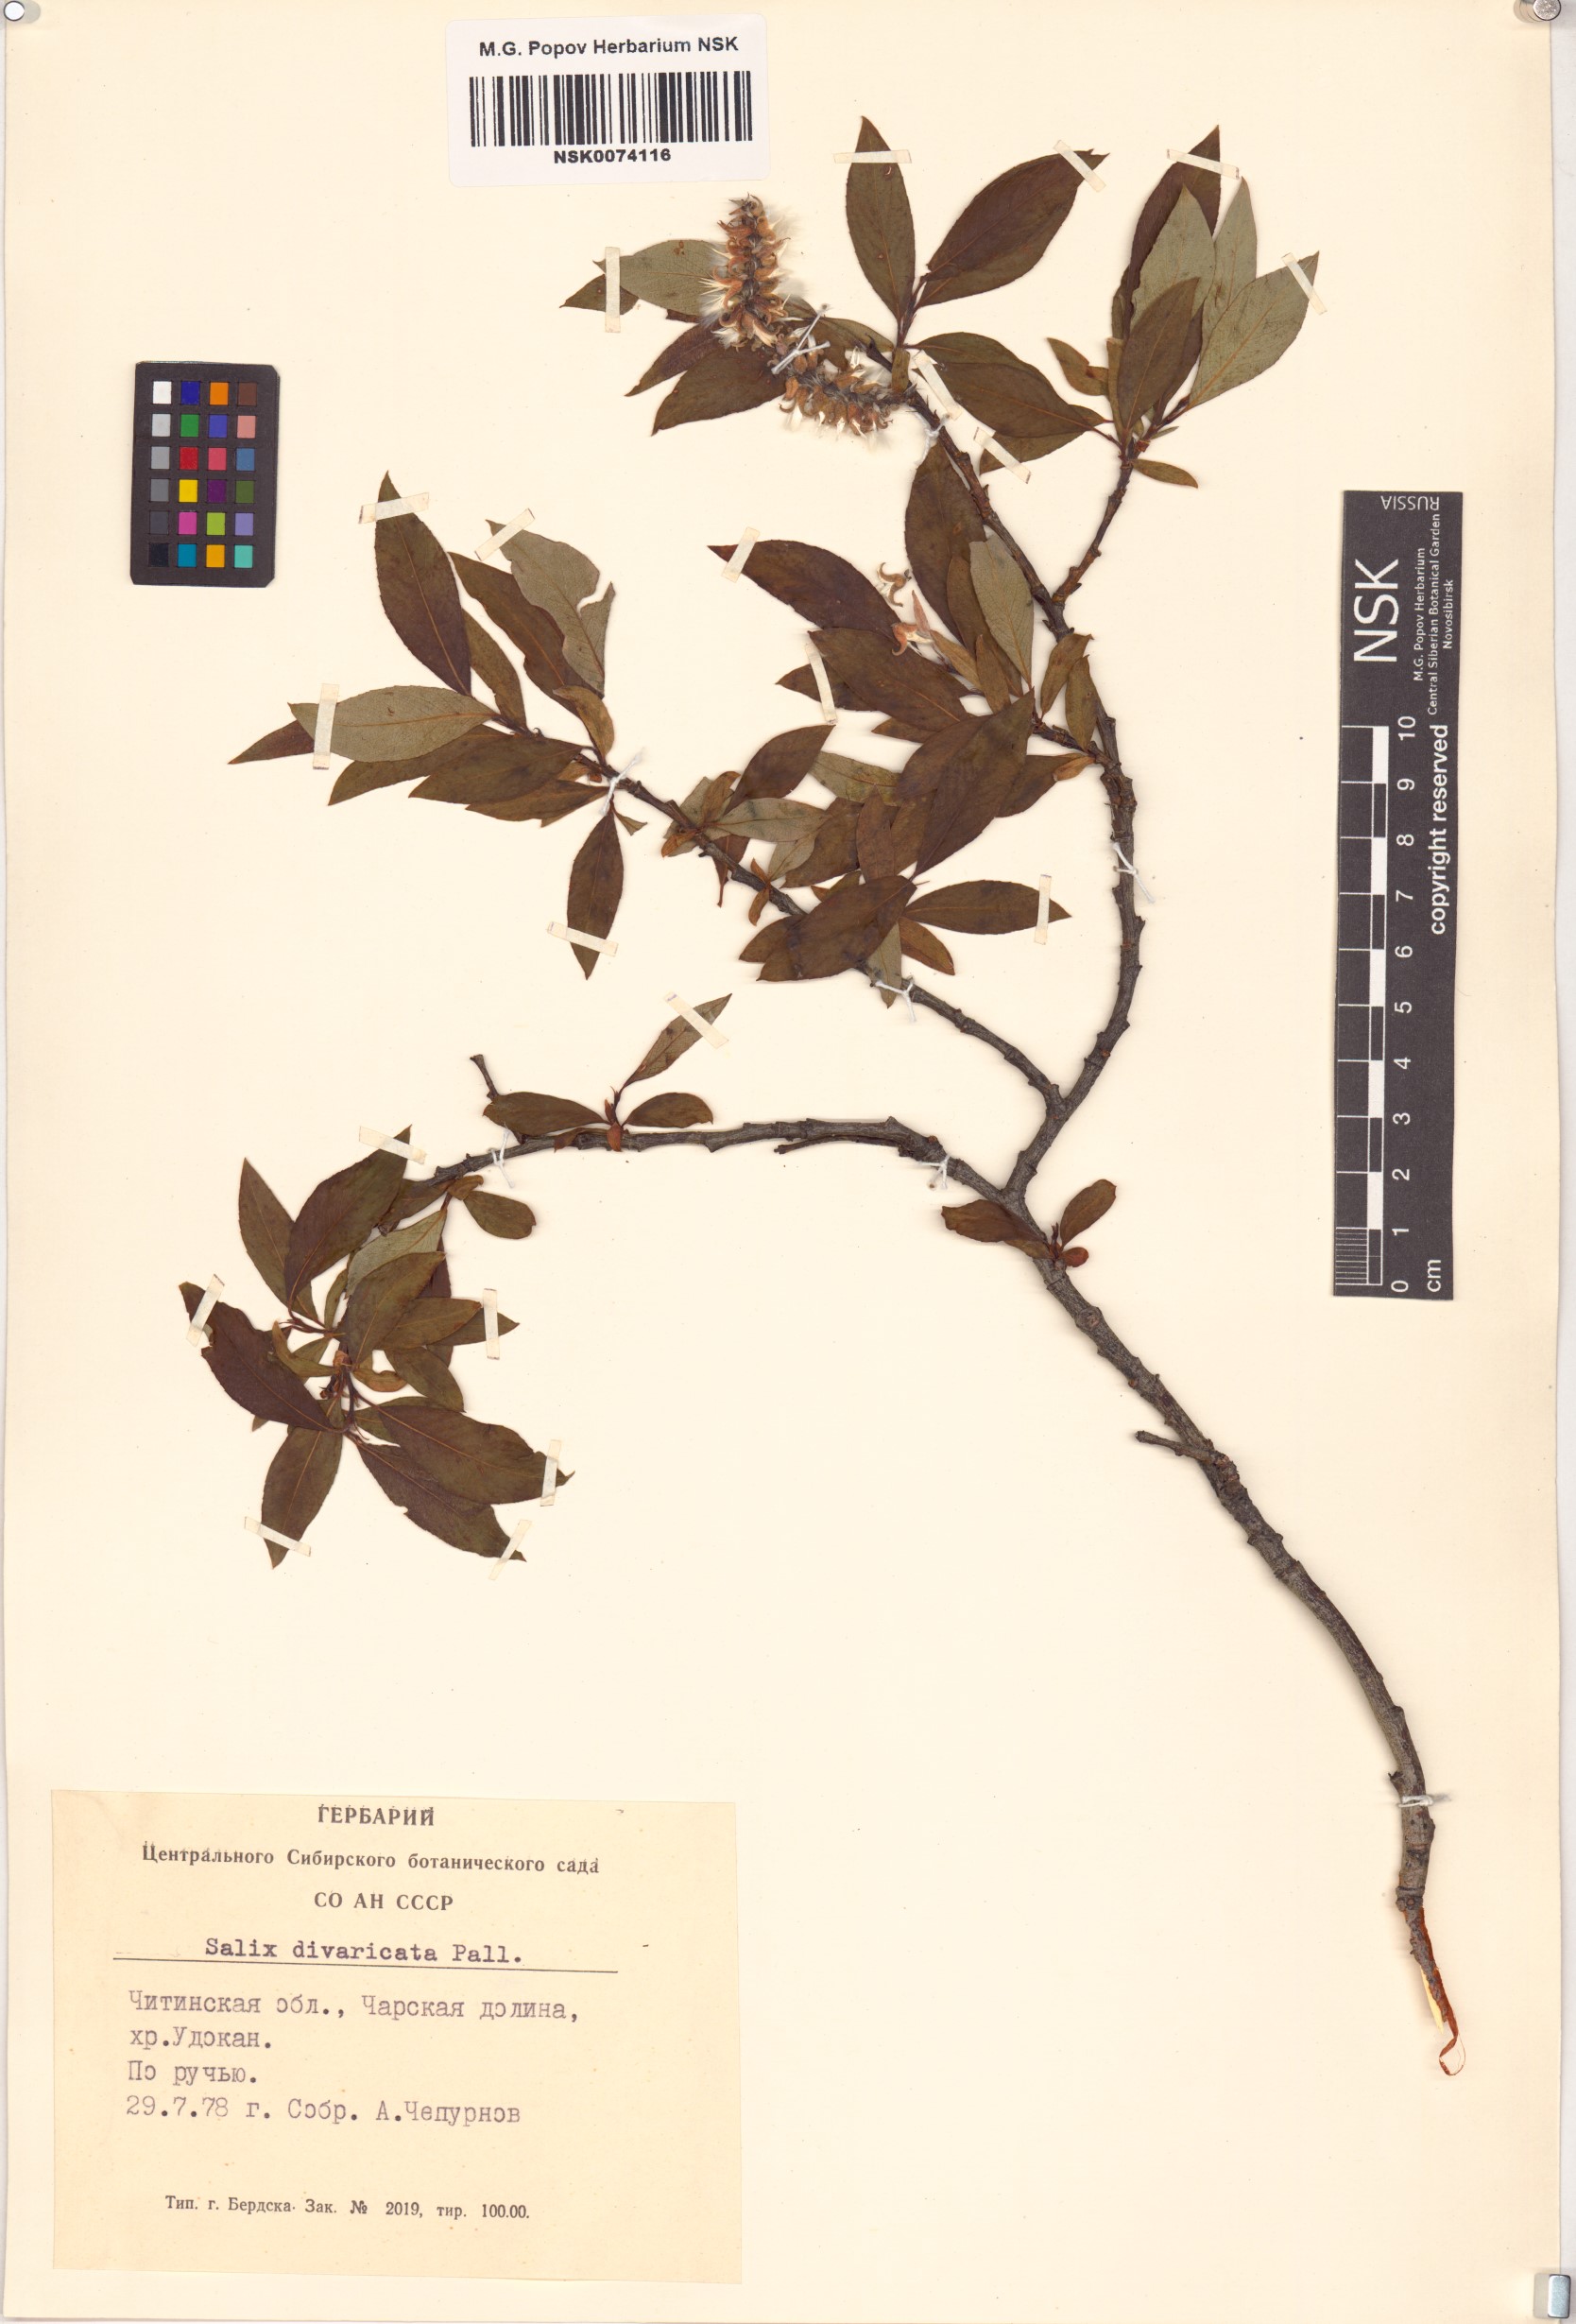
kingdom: Plantae
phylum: Tracheophyta
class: Magnoliopsida
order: Malpighiales
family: Salicaceae
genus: Salix
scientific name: Salix divaricata
